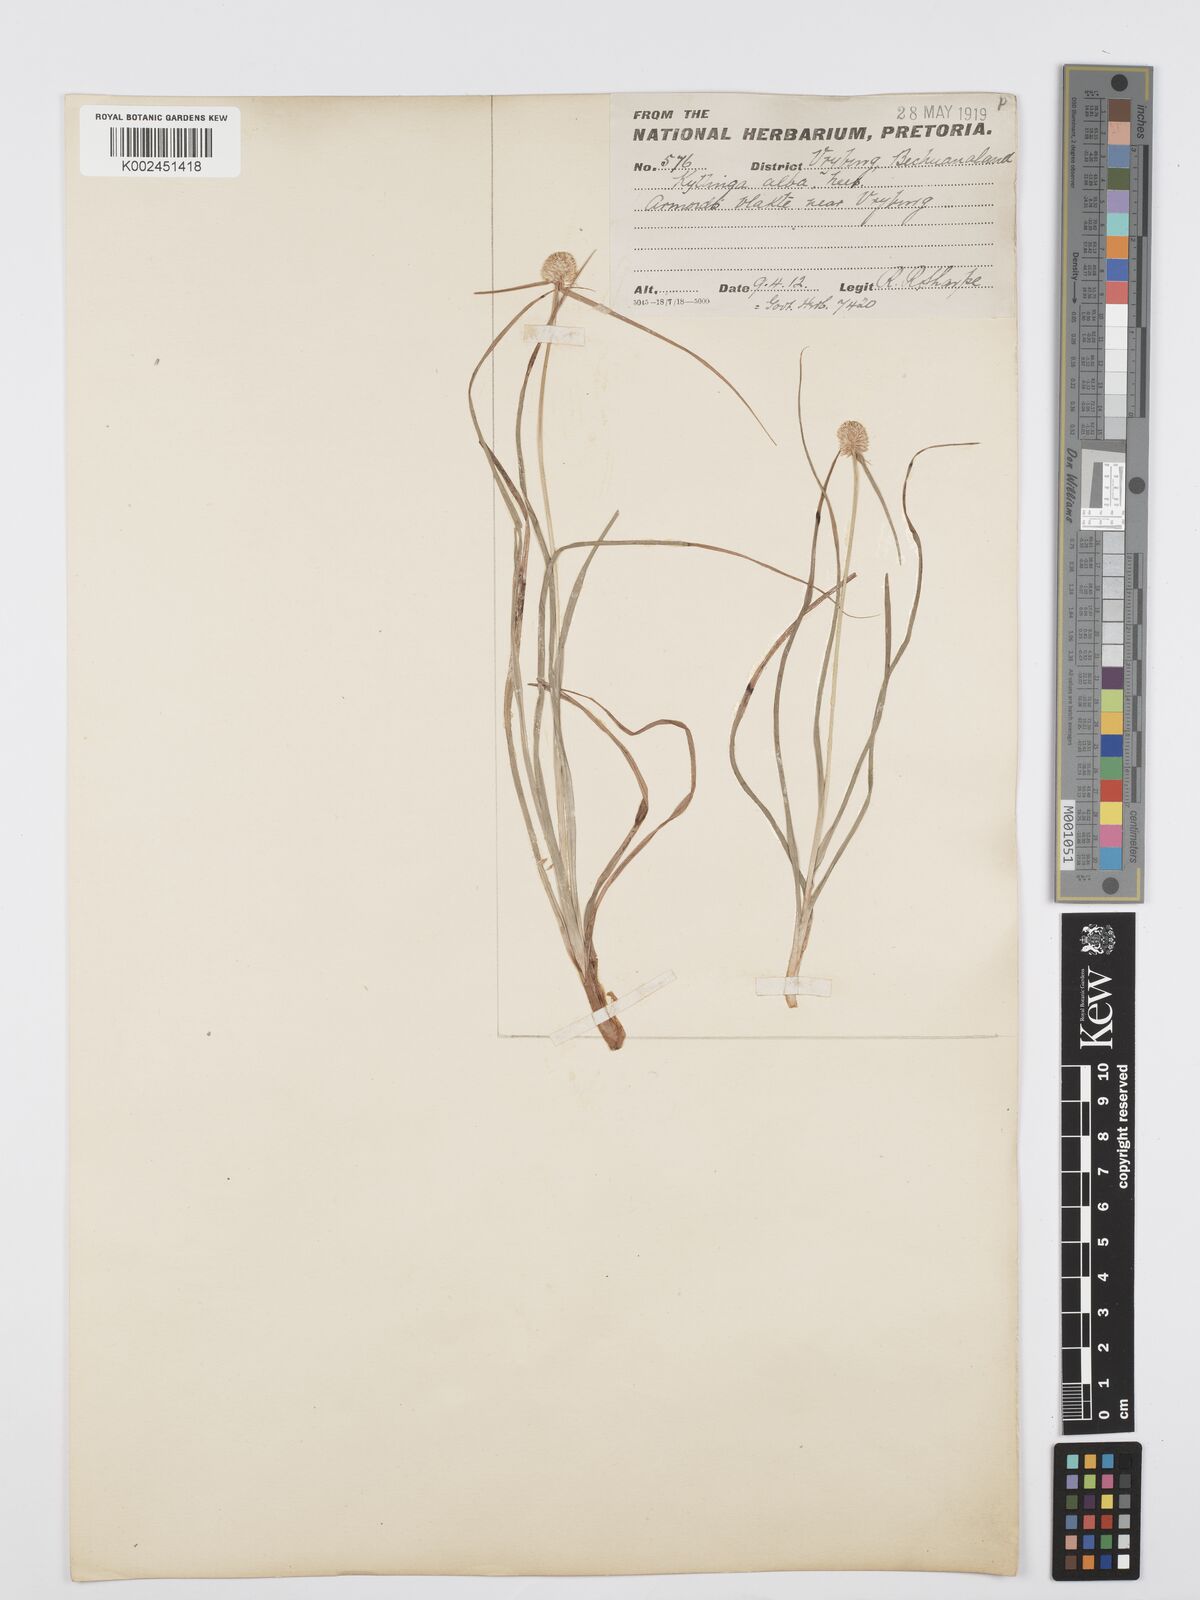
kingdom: Plantae
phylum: Tracheophyta
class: Liliopsida
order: Poales
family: Cyperaceae
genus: Cyperus
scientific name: Cyperus alatus
